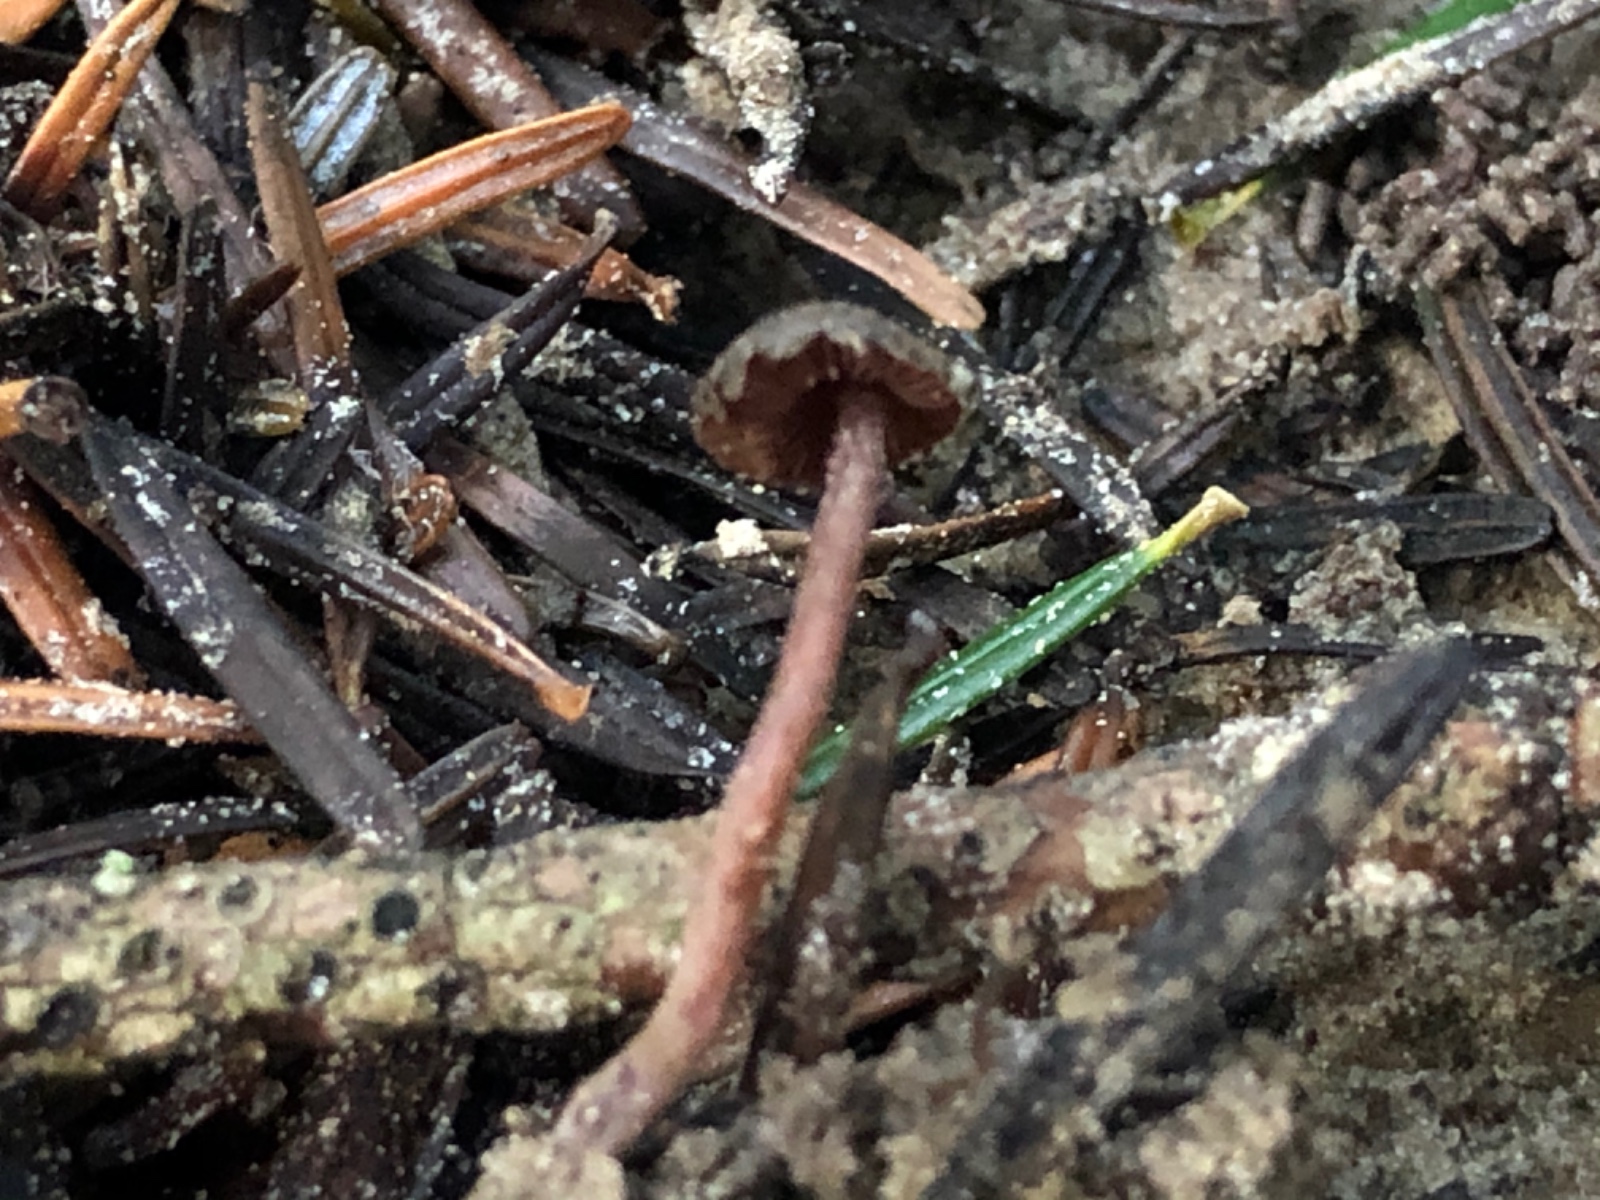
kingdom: Fungi
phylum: Basidiomycota
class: Agaricomycetes
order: Agaricales
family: Agaricaceae
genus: Melanophyllum
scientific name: Melanophyllum haematospermum
